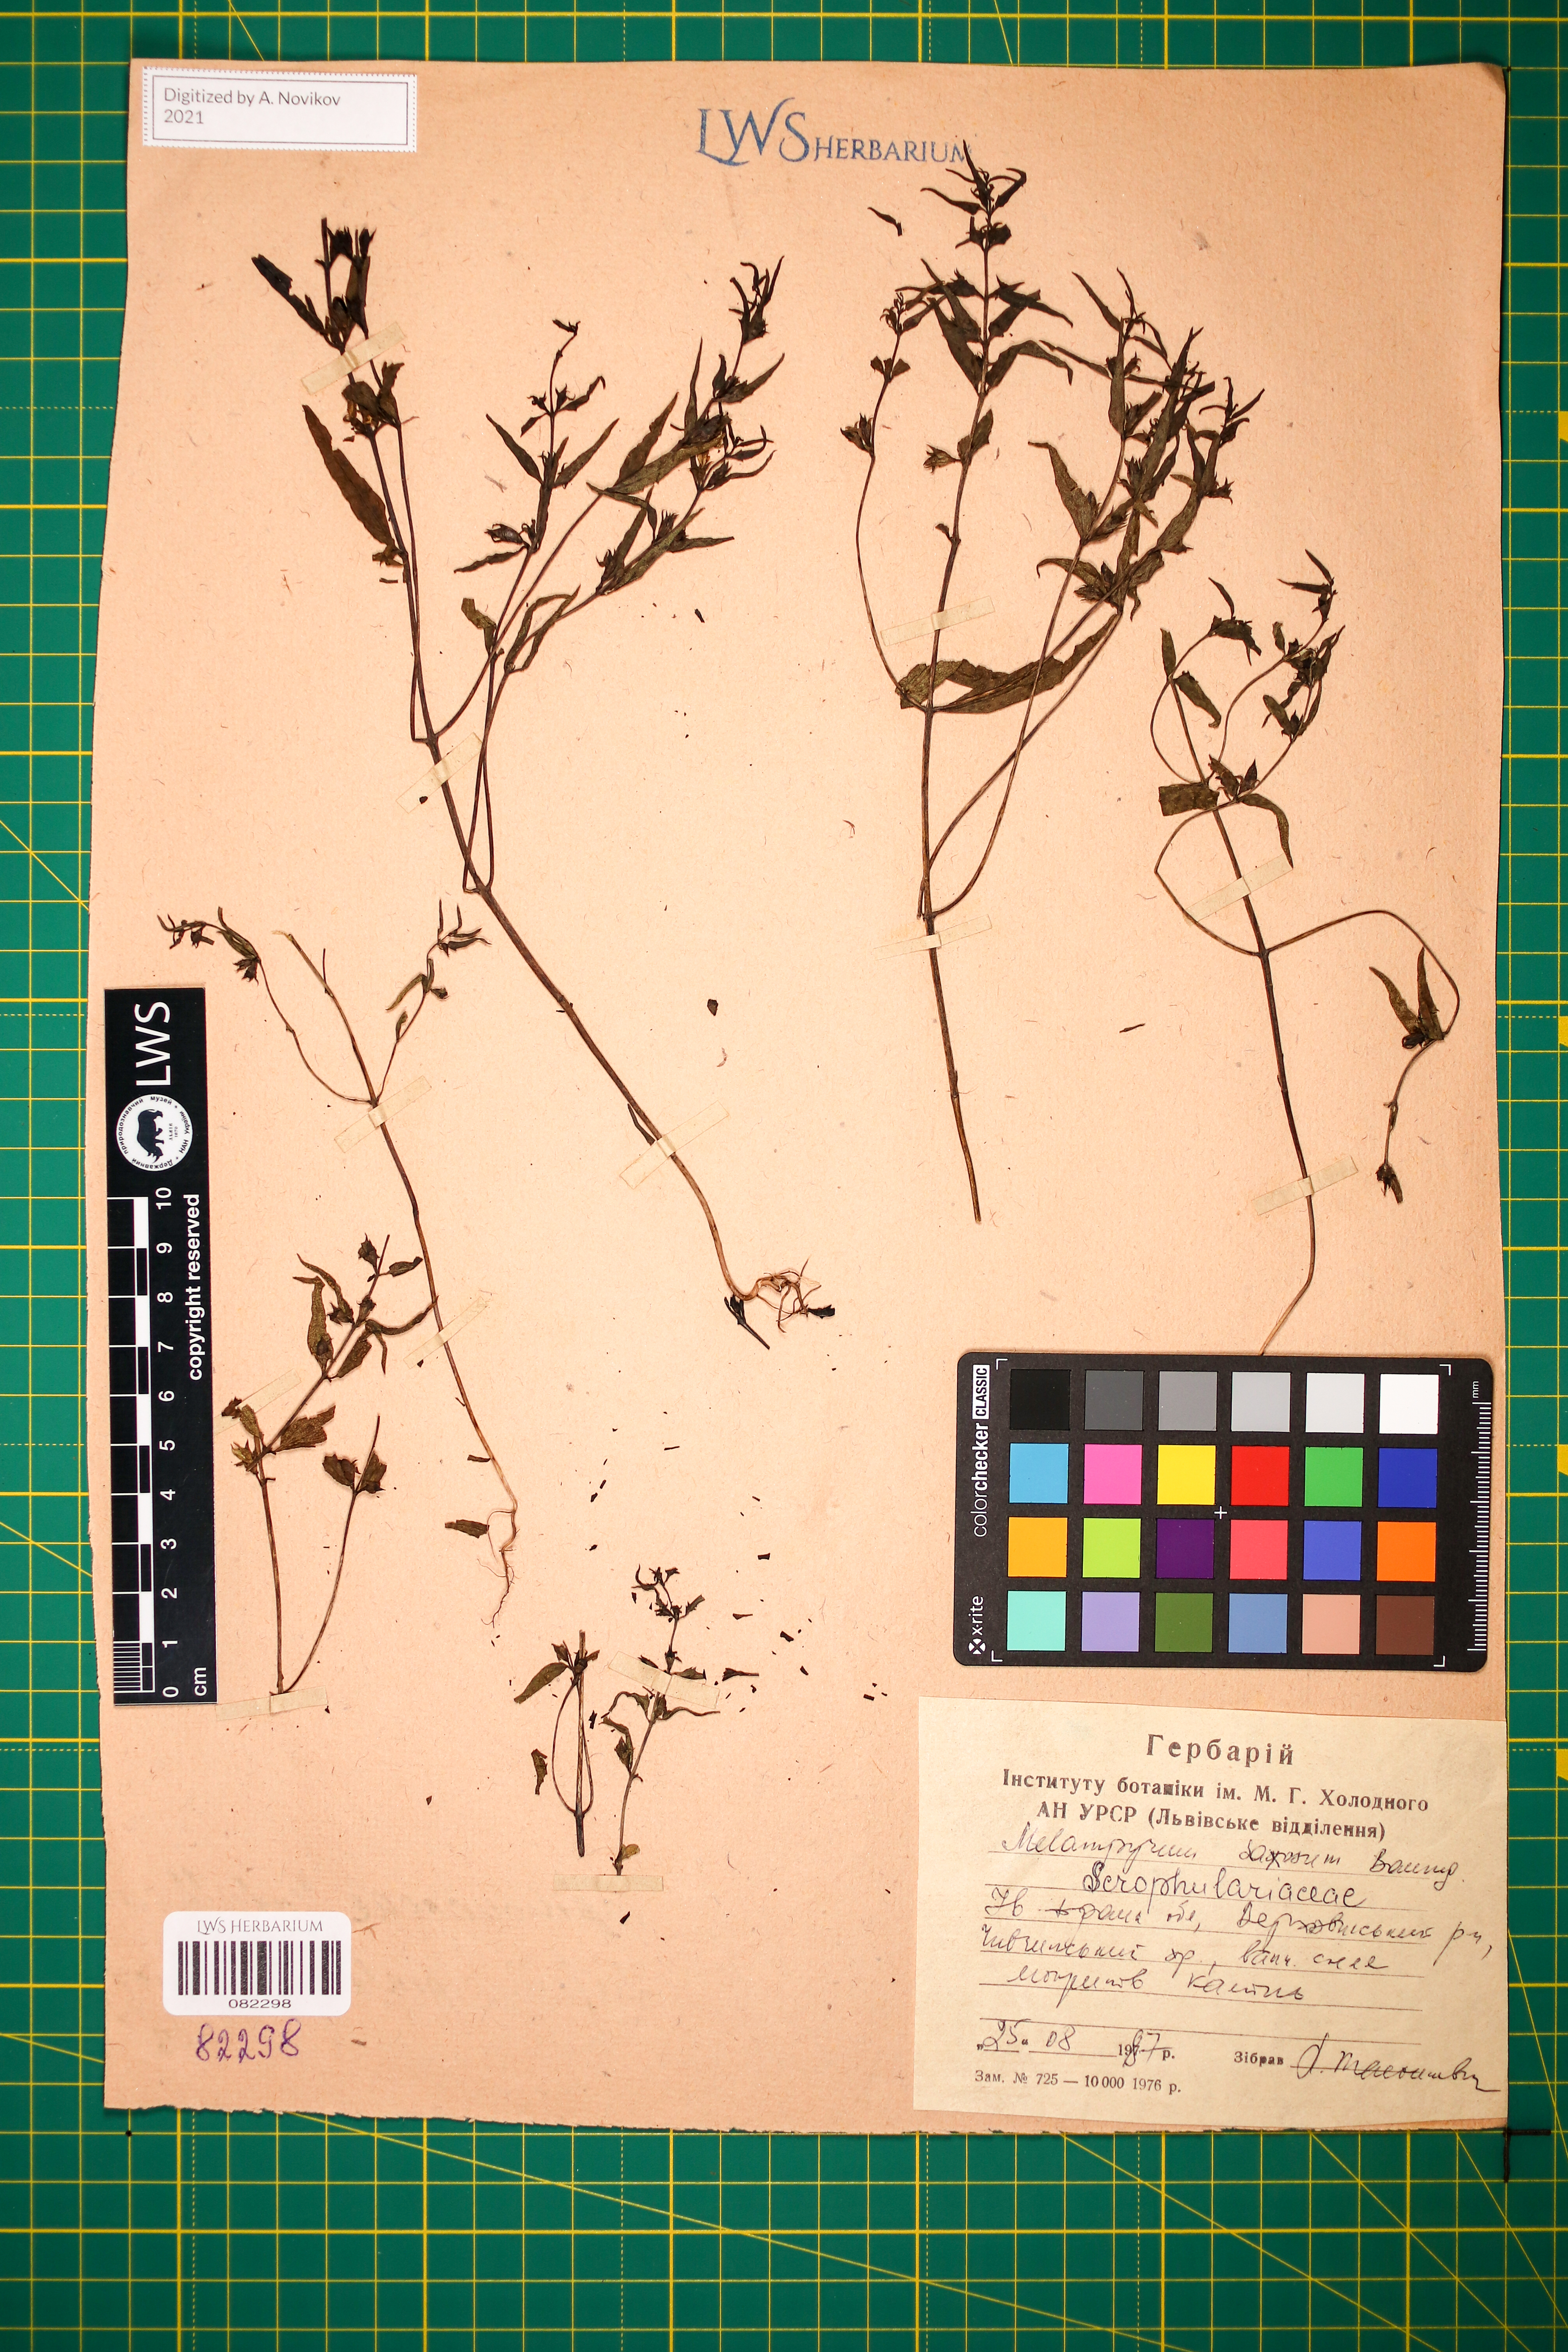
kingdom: Plantae
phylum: Tracheophyta
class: Magnoliopsida
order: Lamiales
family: Orobanchaceae
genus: Melampyrum
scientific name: Melampyrum saxosum
